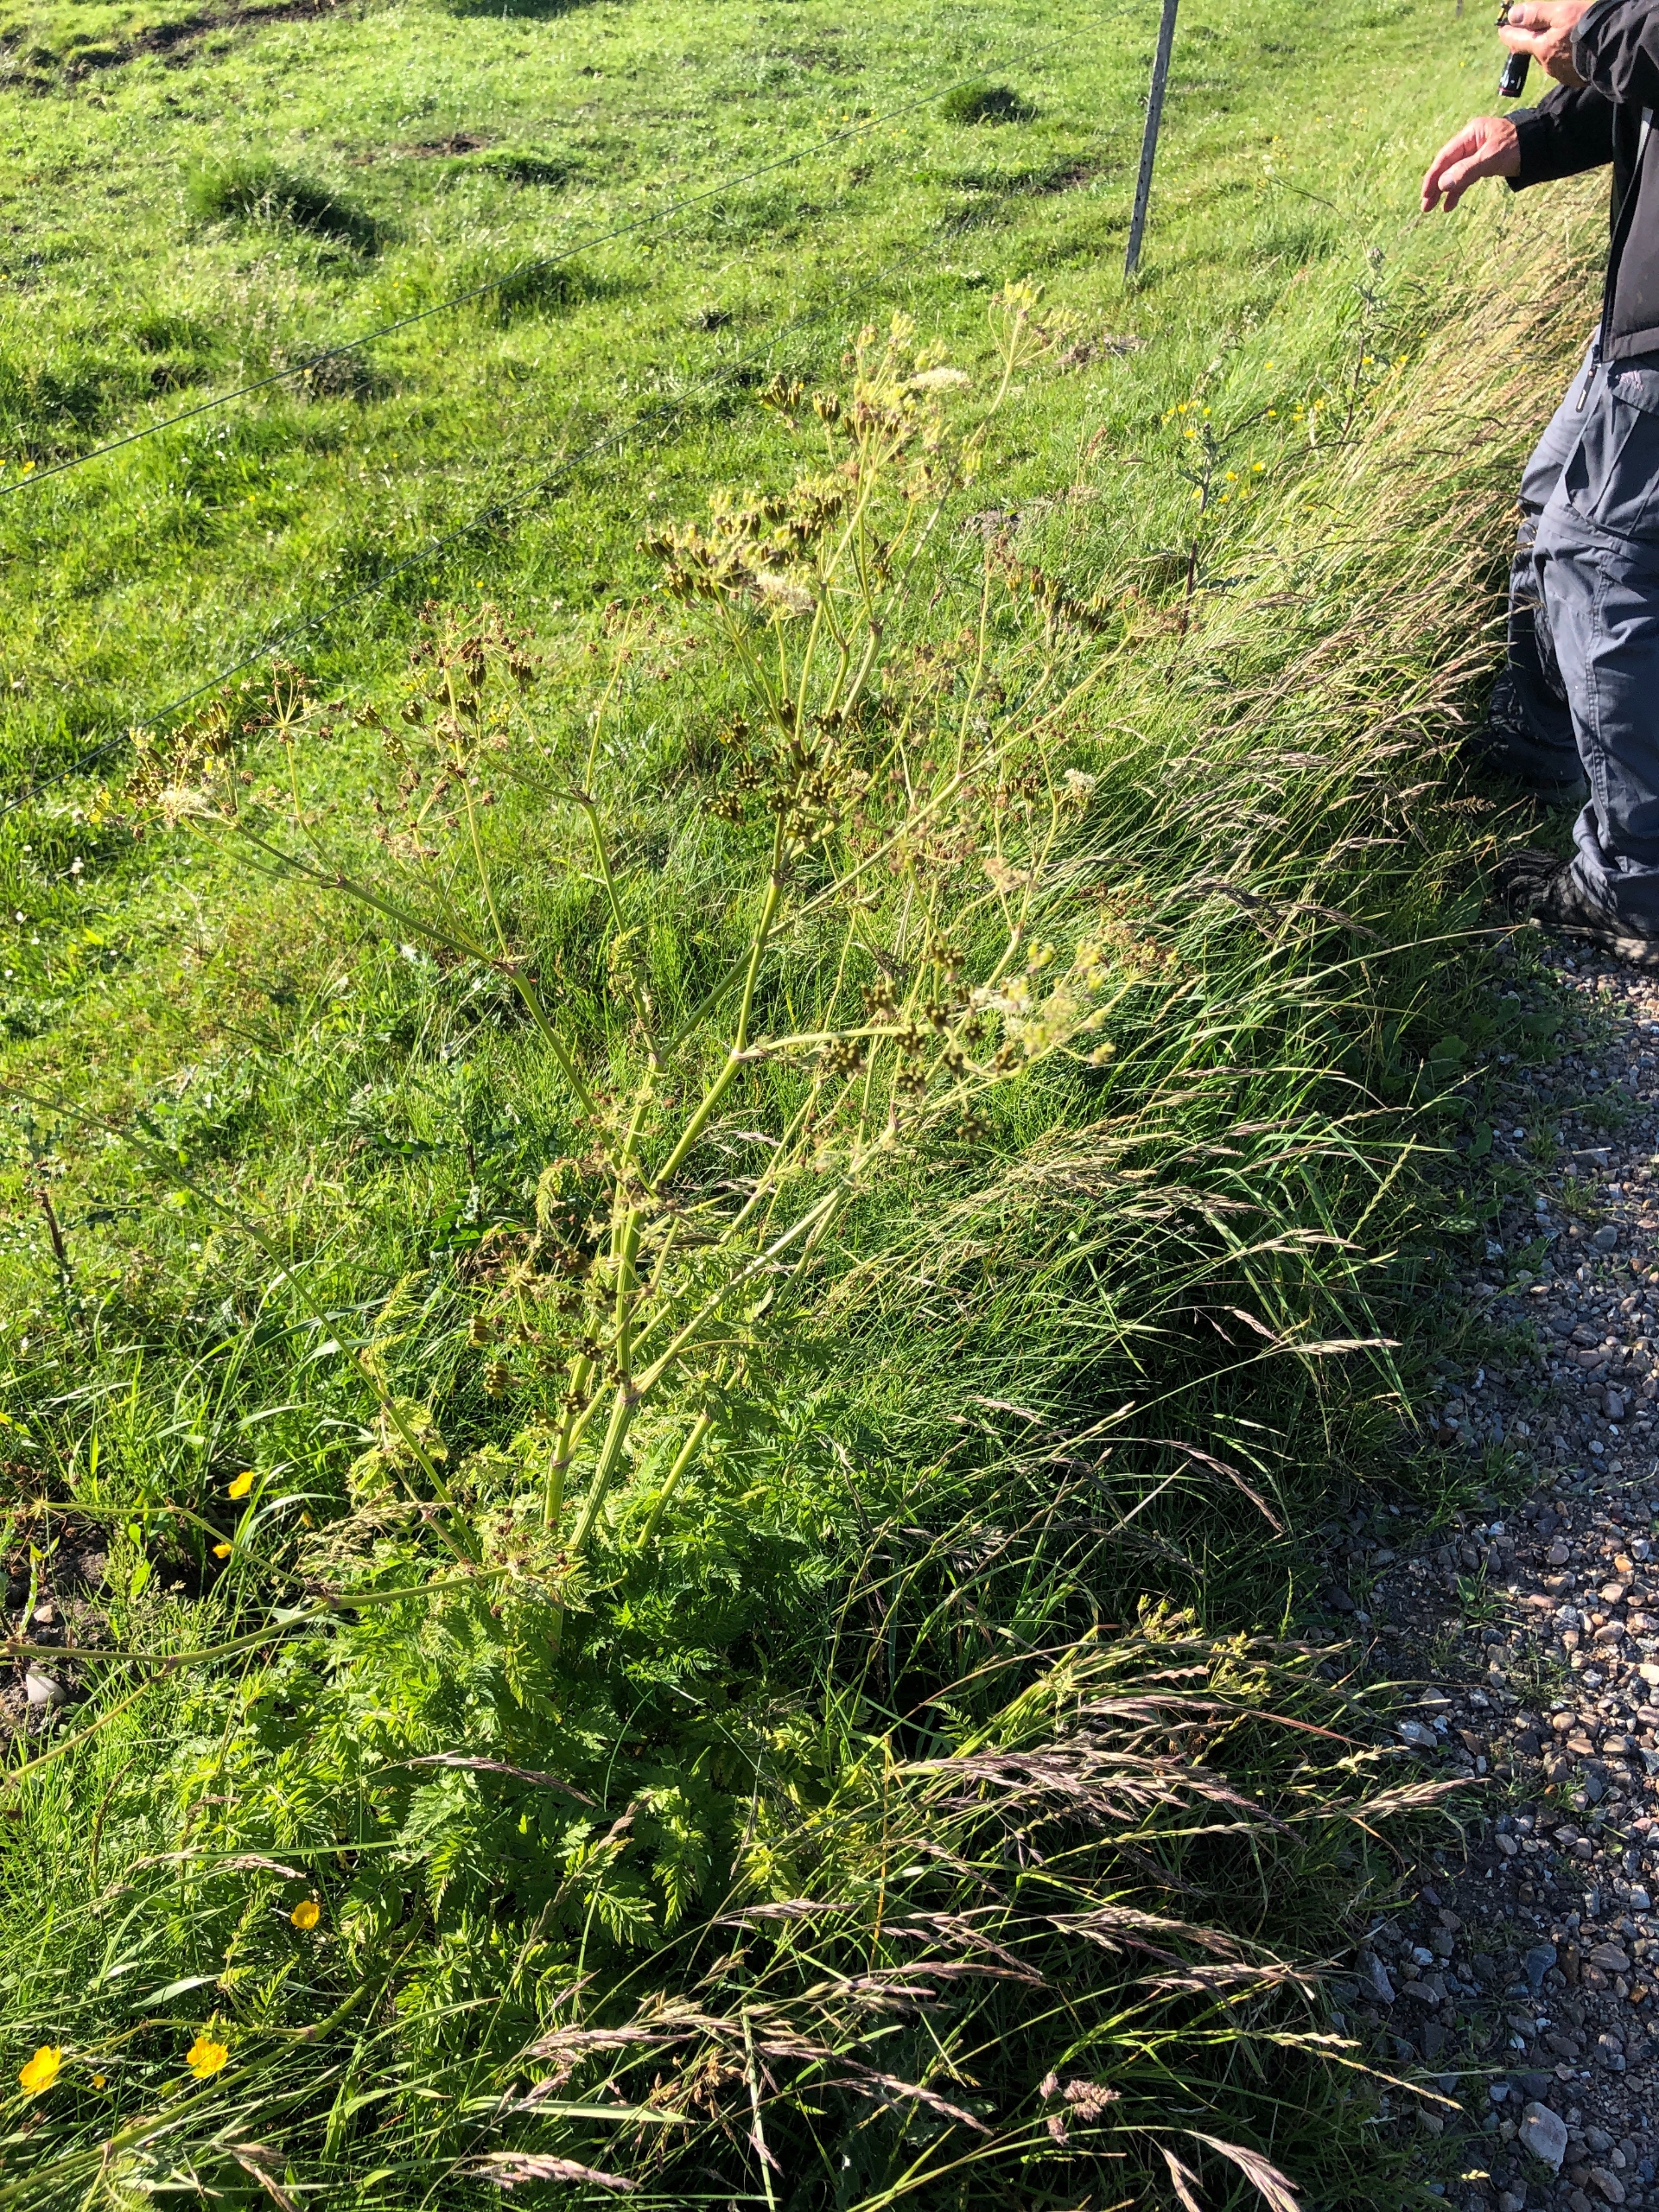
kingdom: Plantae
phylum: Tracheophyta
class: Magnoliopsida
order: Apiales
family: Apiaceae
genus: Anthriscus
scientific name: Anthriscus sylvestris
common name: Vild kørvel
